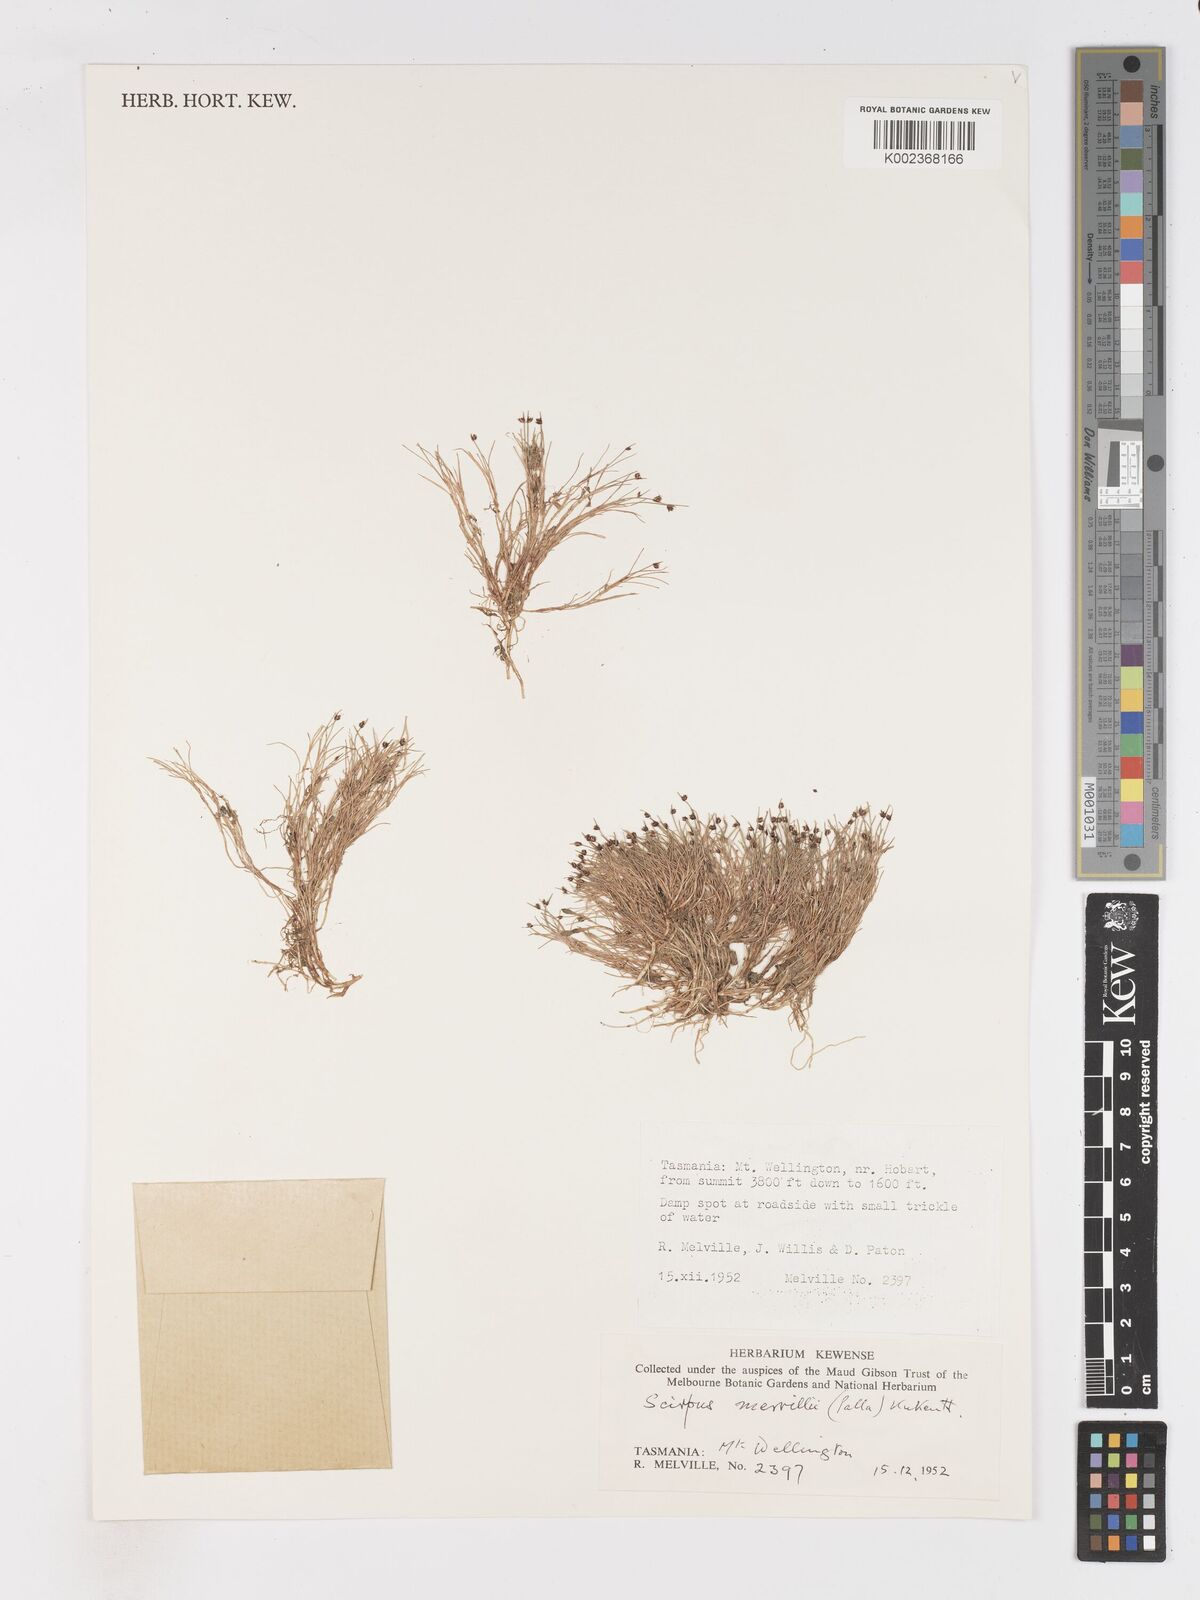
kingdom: Plantae
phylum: Tracheophyta
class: Liliopsida
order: Poales
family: Cyperaceae
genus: Isolepis
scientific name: Isolepis subtilissima
